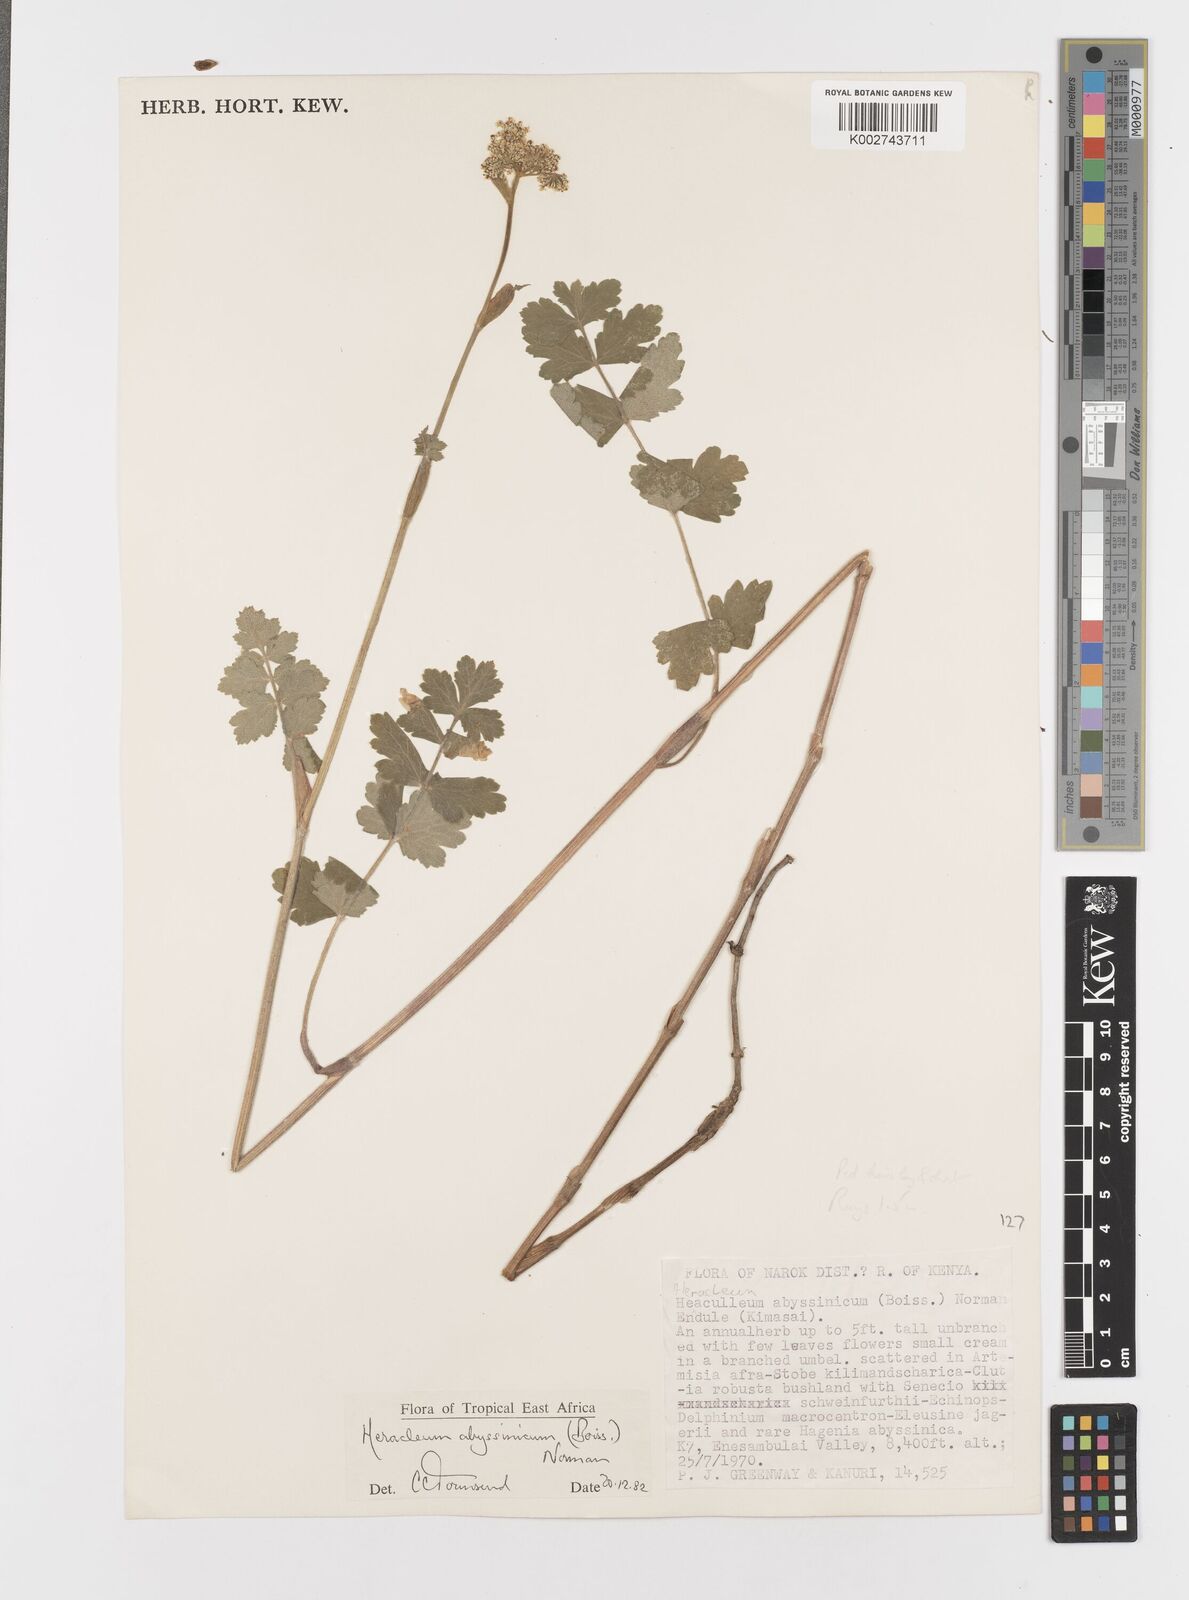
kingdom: Plantae
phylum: Tracheophyta
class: Magnoliopsida
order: Apiales
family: Apiaceae
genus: Heracleum
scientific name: Heracleum abyssinicum
